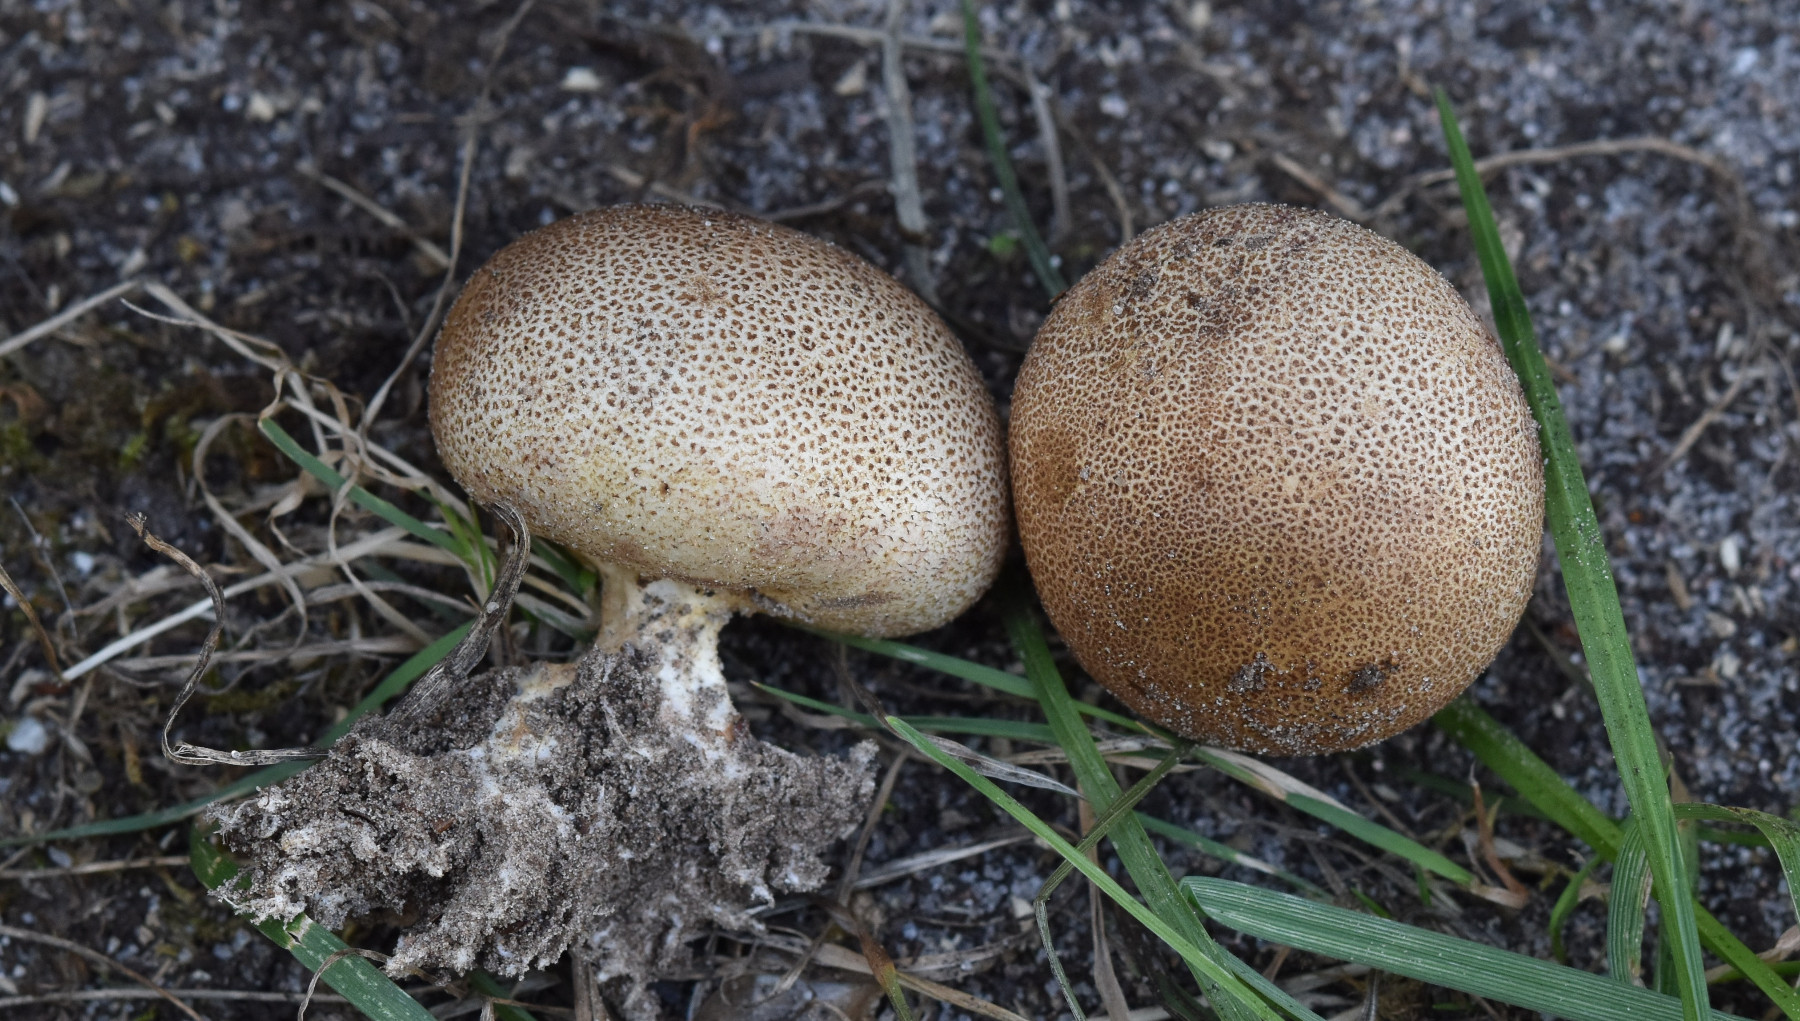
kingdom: Fungi
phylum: Basidiomycota
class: Agaricomycetes
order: Boletales
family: Sclerodermataceae
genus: Scleroderma
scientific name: Scleroderma areolatum
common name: plettet bruskbold
